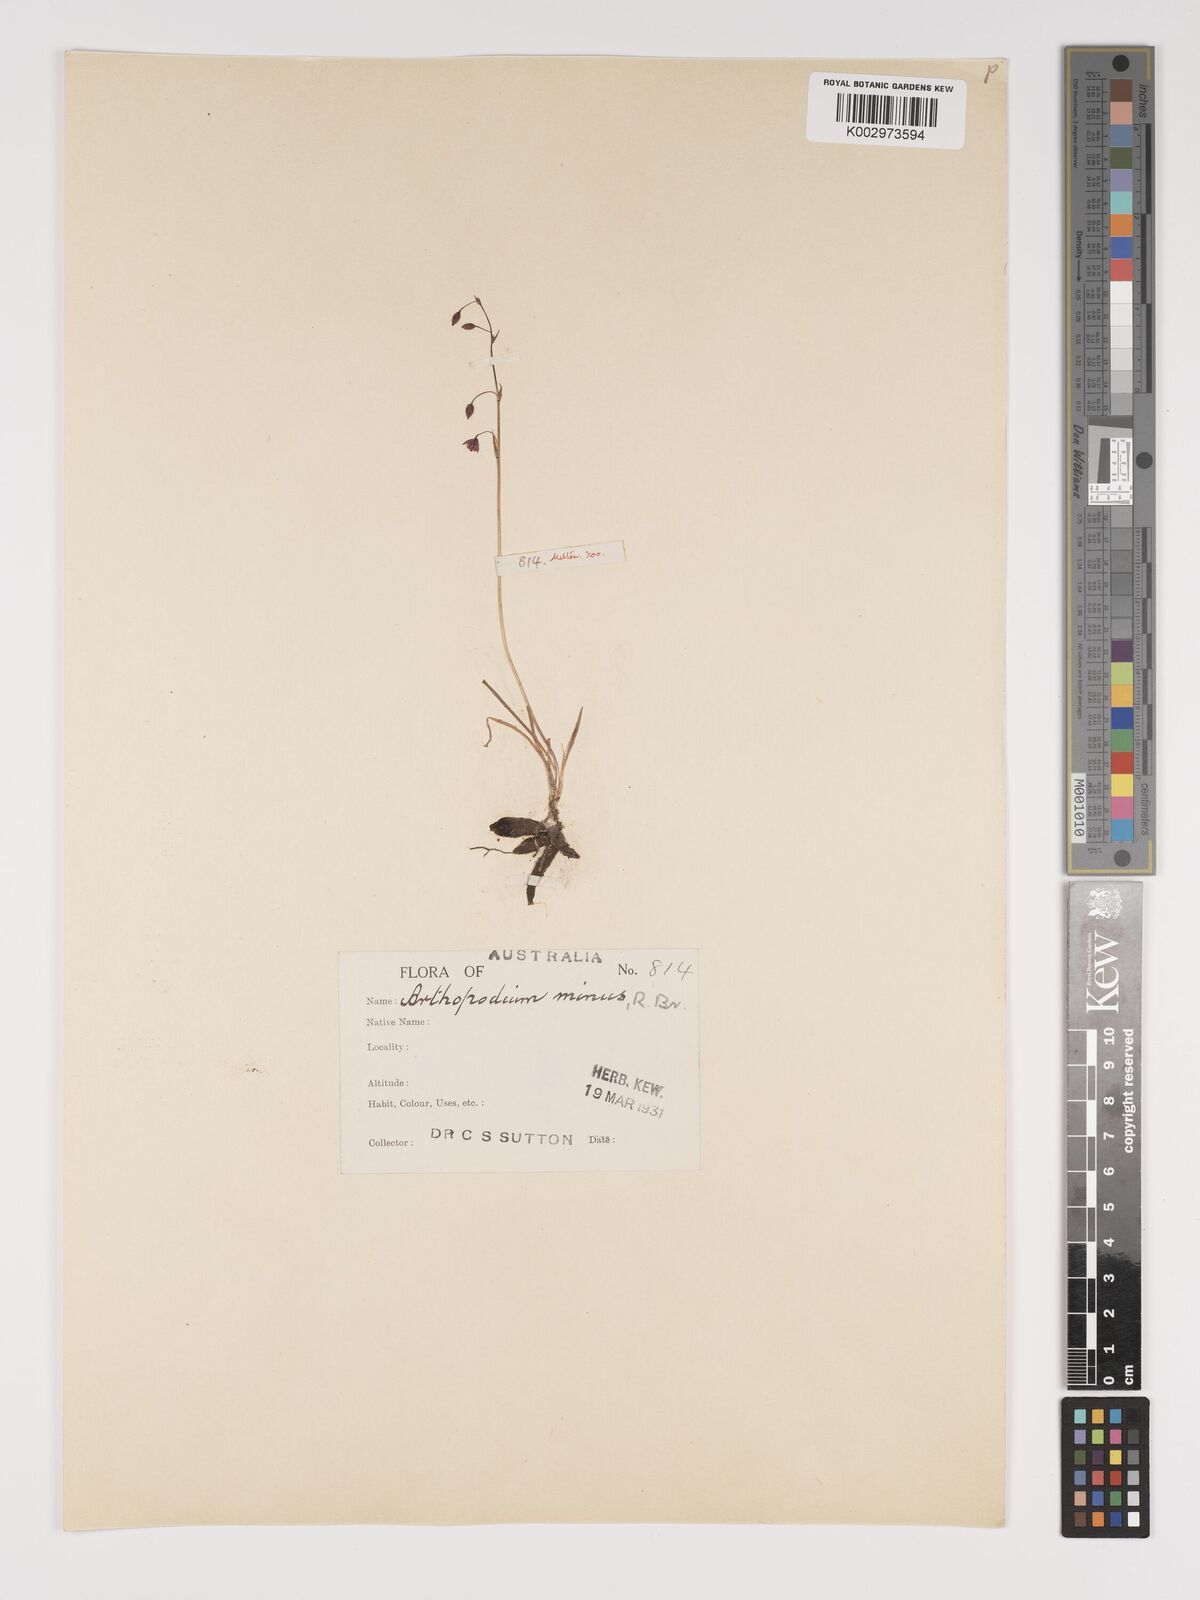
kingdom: Plantae
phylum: Tracheophyta
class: Liliopsida
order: Asparagales
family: Asparagaceae
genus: Arthropodium
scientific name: Arthropodium minus
